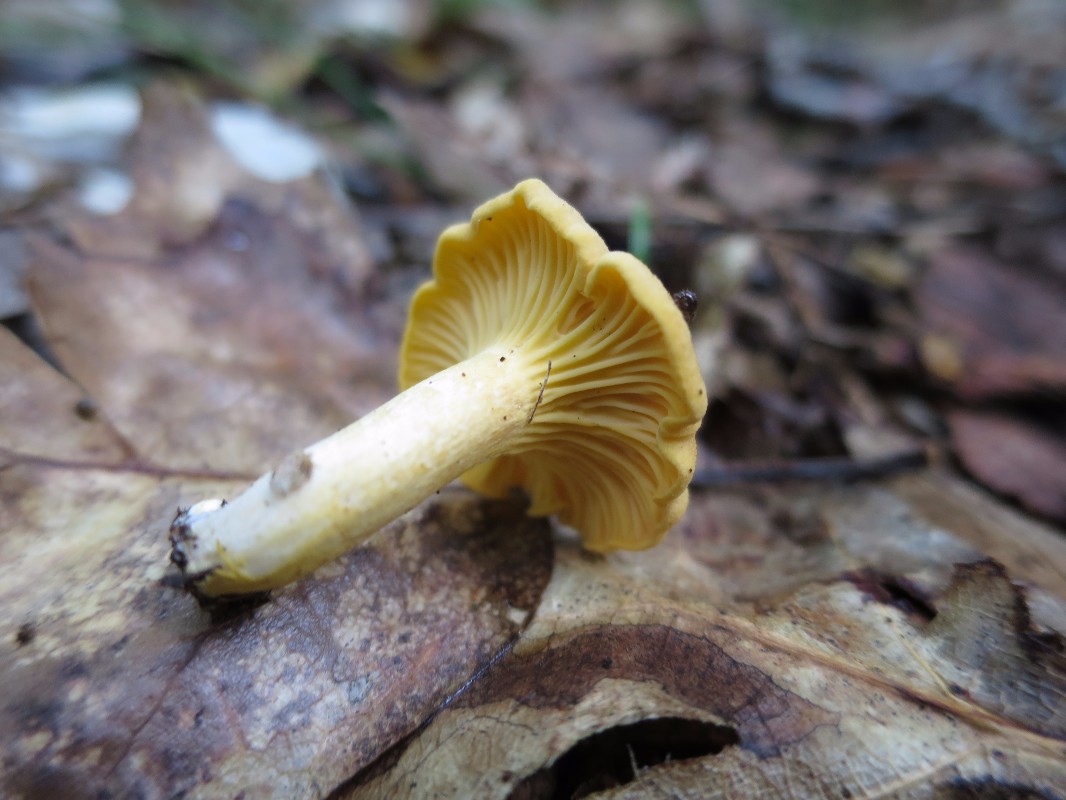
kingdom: Fungi
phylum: Basidiomycota
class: Agaricomycetes
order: Cantharellales
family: Hydnaceae
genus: Cantharellus
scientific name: Cantharellus cibarius
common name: almindelig kantarel
